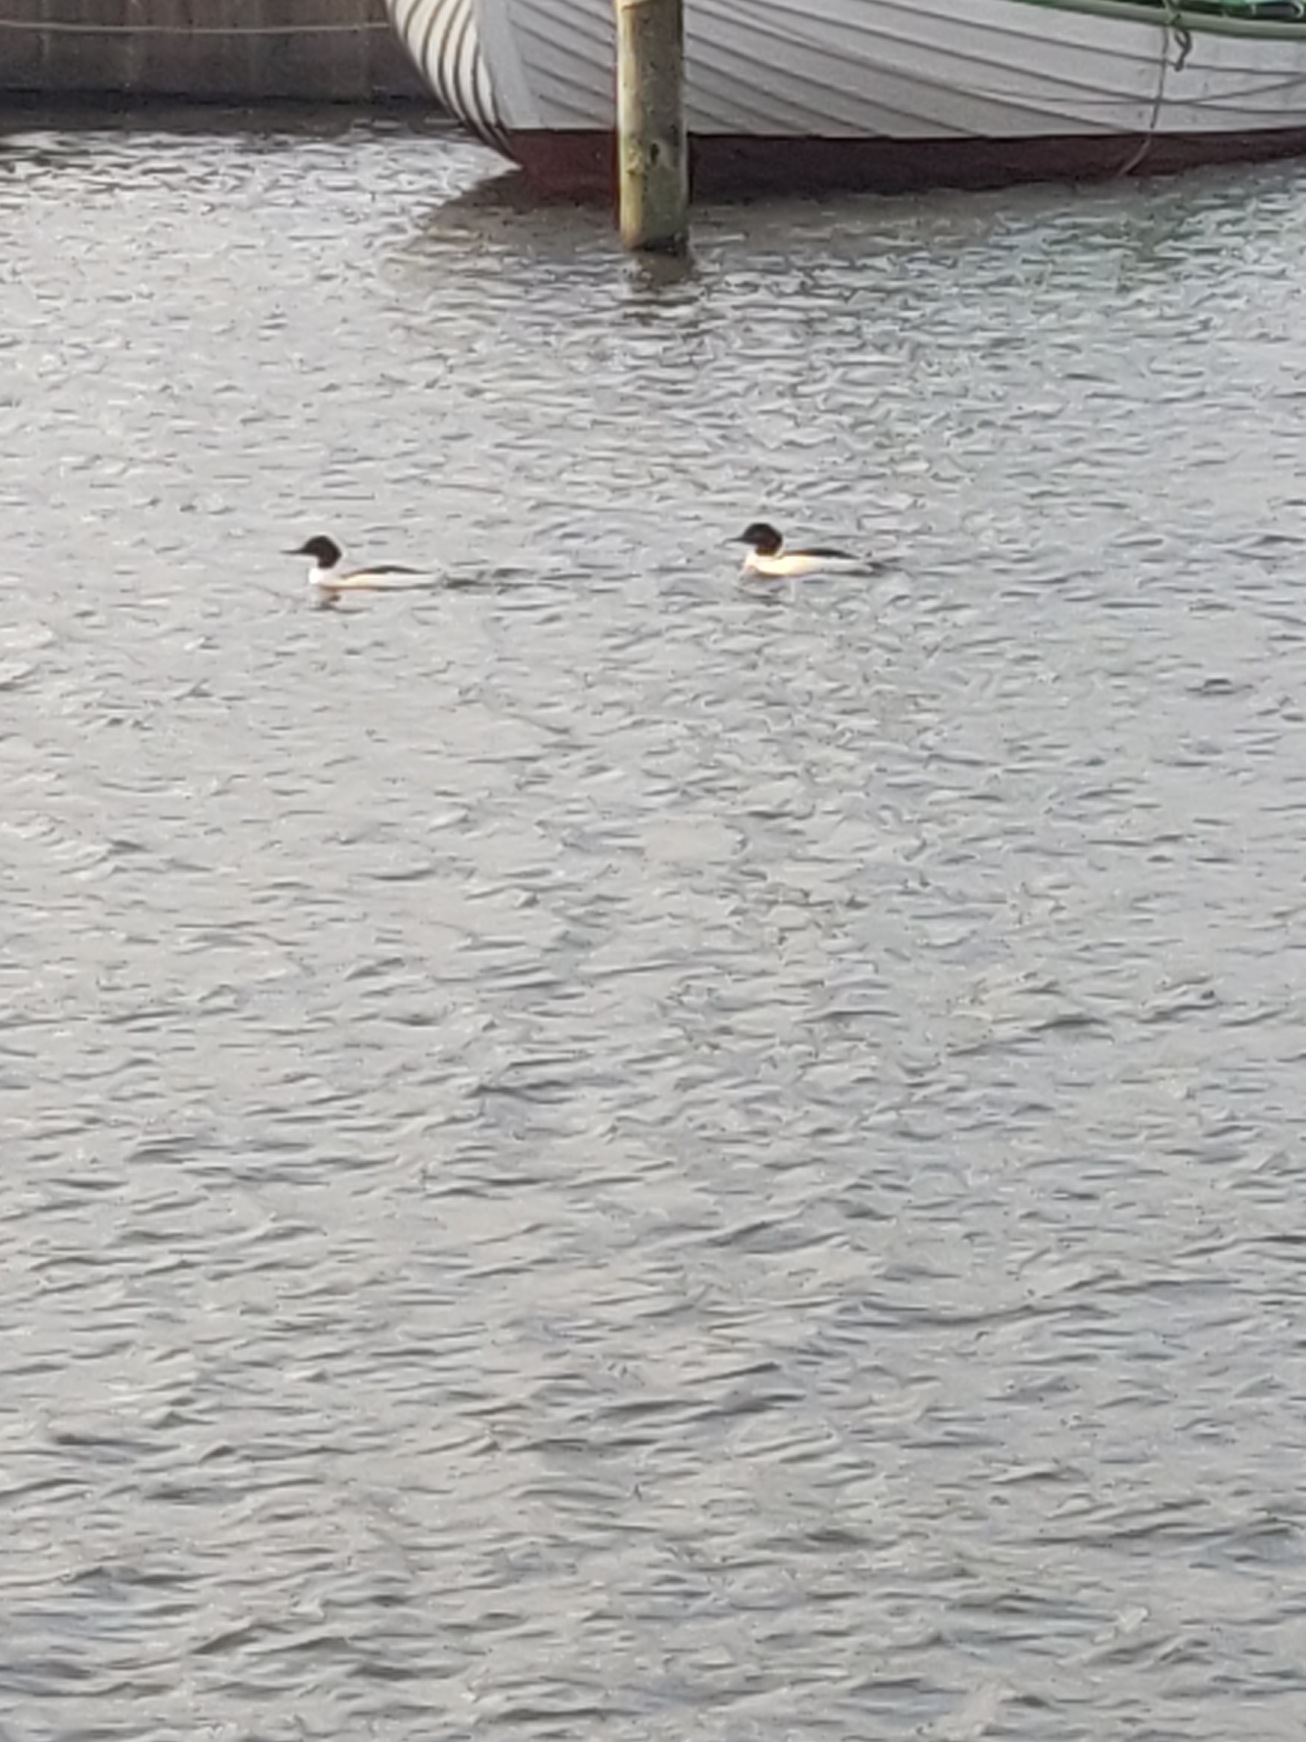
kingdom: Animalia
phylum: Chordata
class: Aves
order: Anseriformes
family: Anatidae
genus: Mergus
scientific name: Mergus merganser
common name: Stor skallesluger
